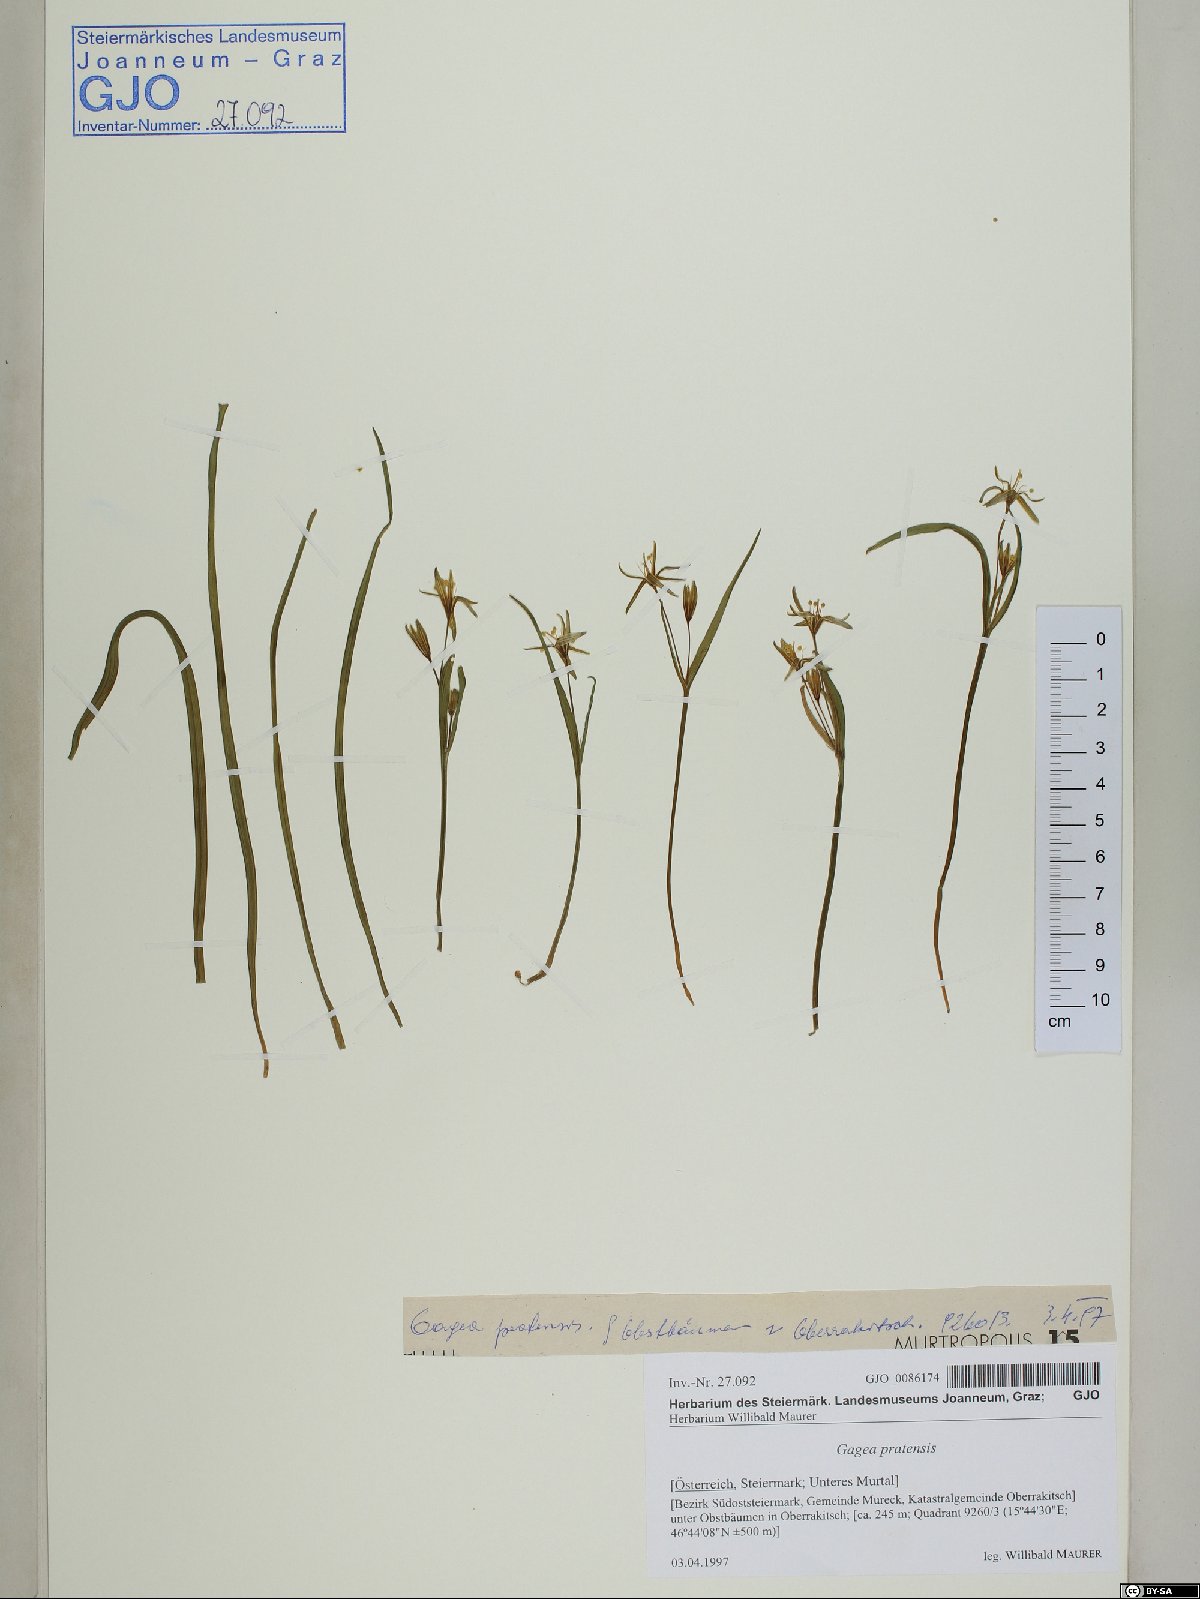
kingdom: Plantae
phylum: Tracheophyta
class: Liliopsida
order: Liliales
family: Liliaceae
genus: Gagea
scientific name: Gagea pratensis
